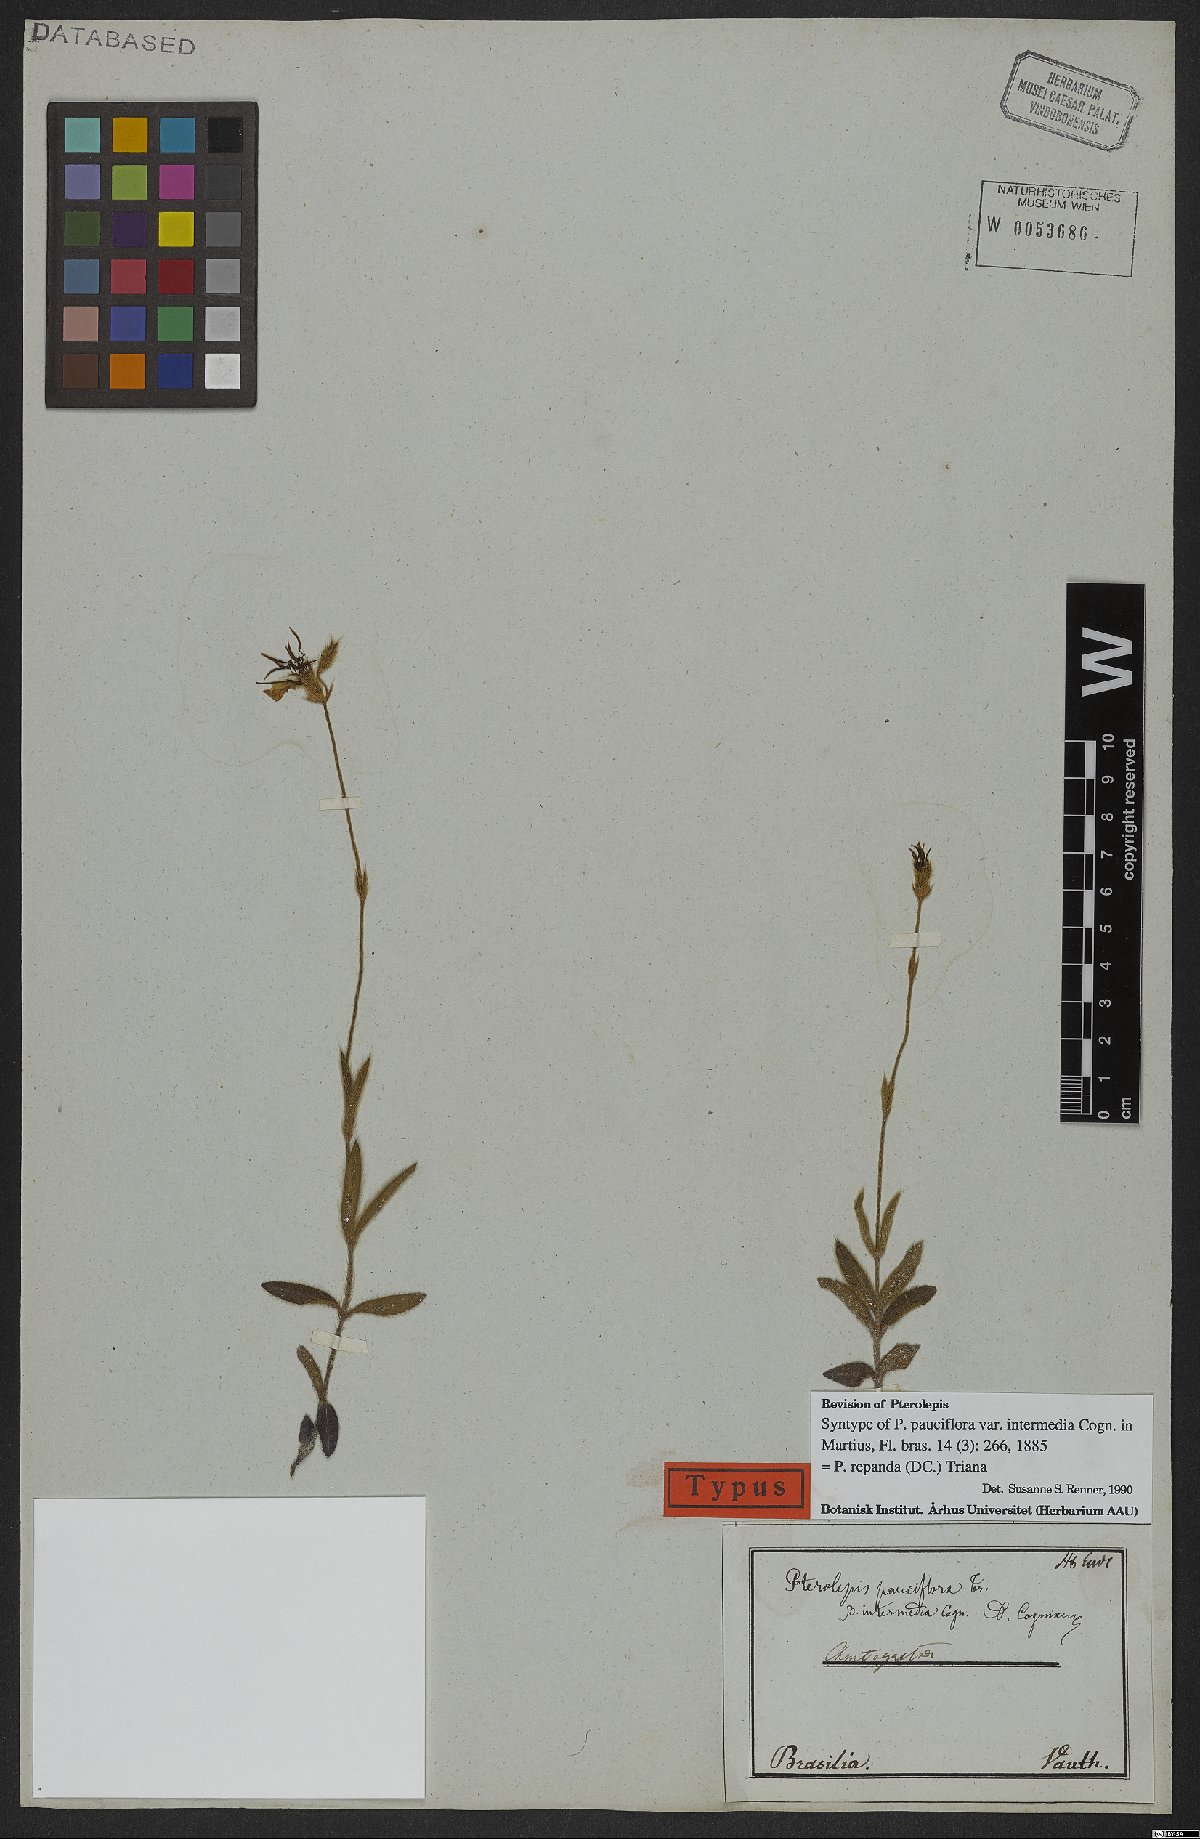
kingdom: Plantae
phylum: Tracheophyta
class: Magnoliopsida
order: Myrtales
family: Melastomataceae
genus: Pterolepis
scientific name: Pterolepis repanda
